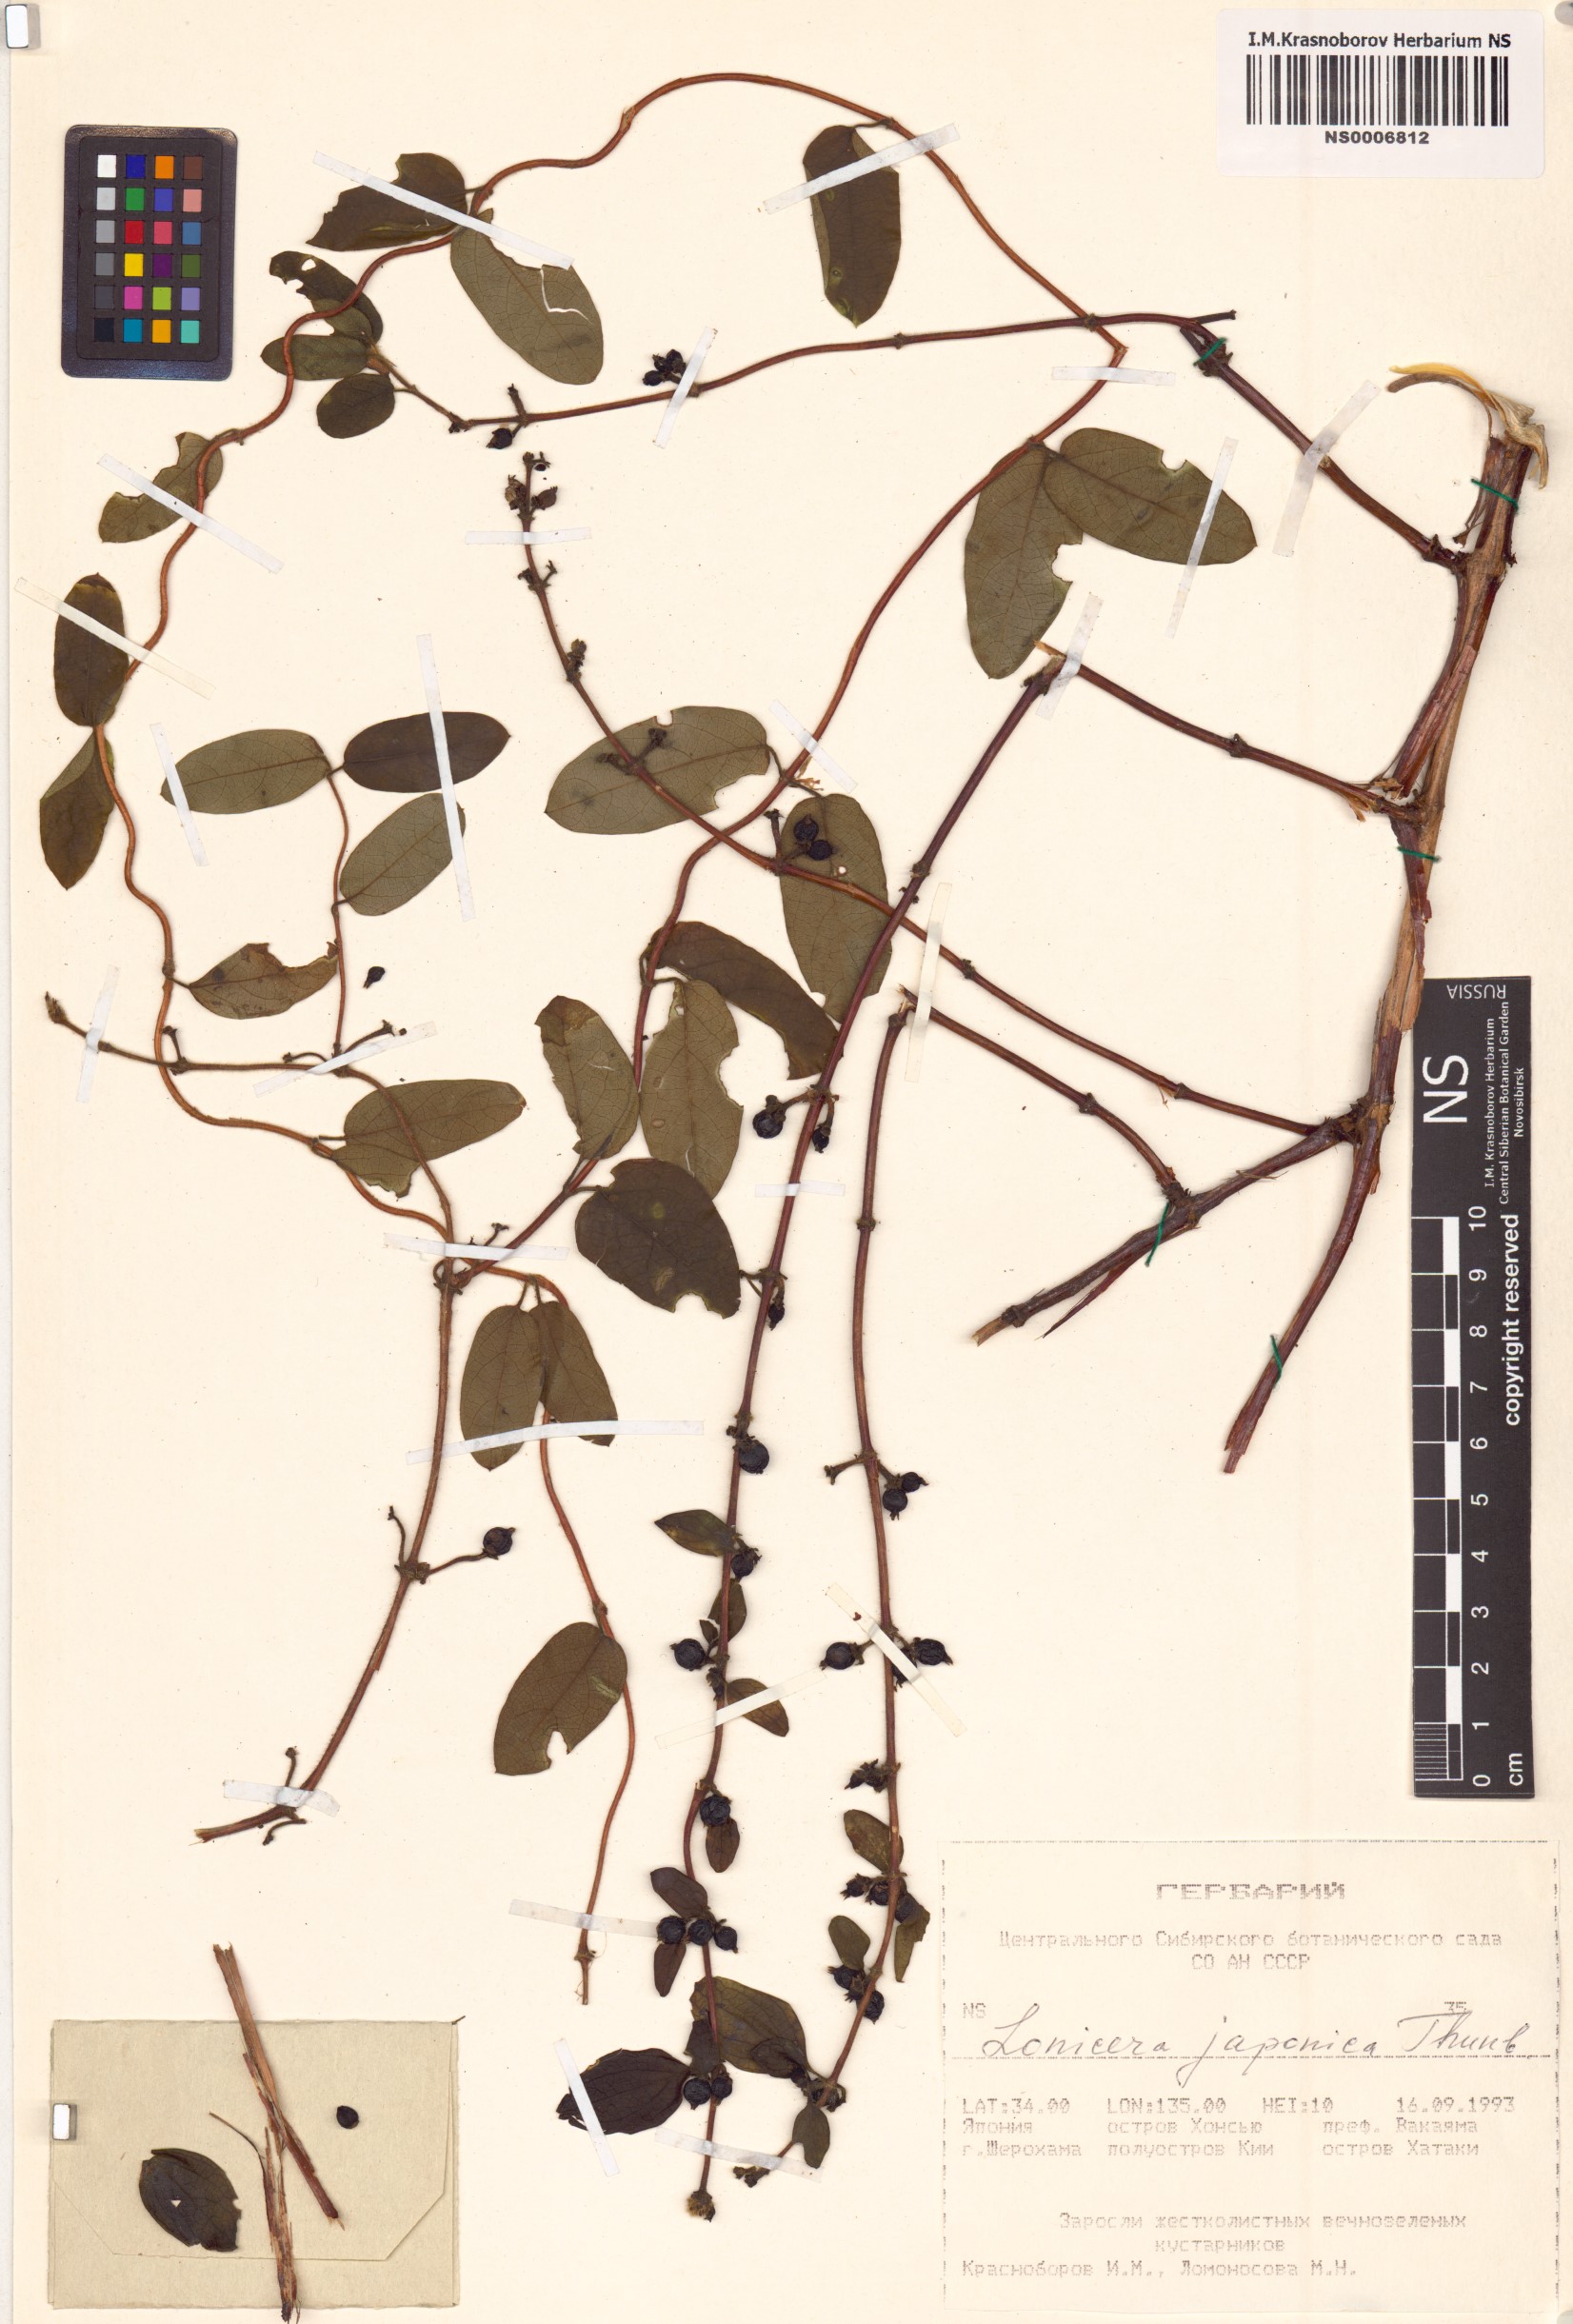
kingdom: Plantae
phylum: Tracheophyta
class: Magnoliopsida
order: Dipsacales
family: Caprifoliaceae
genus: Lonicera
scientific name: Lonicera japonica
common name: Japanese honeysuckle
